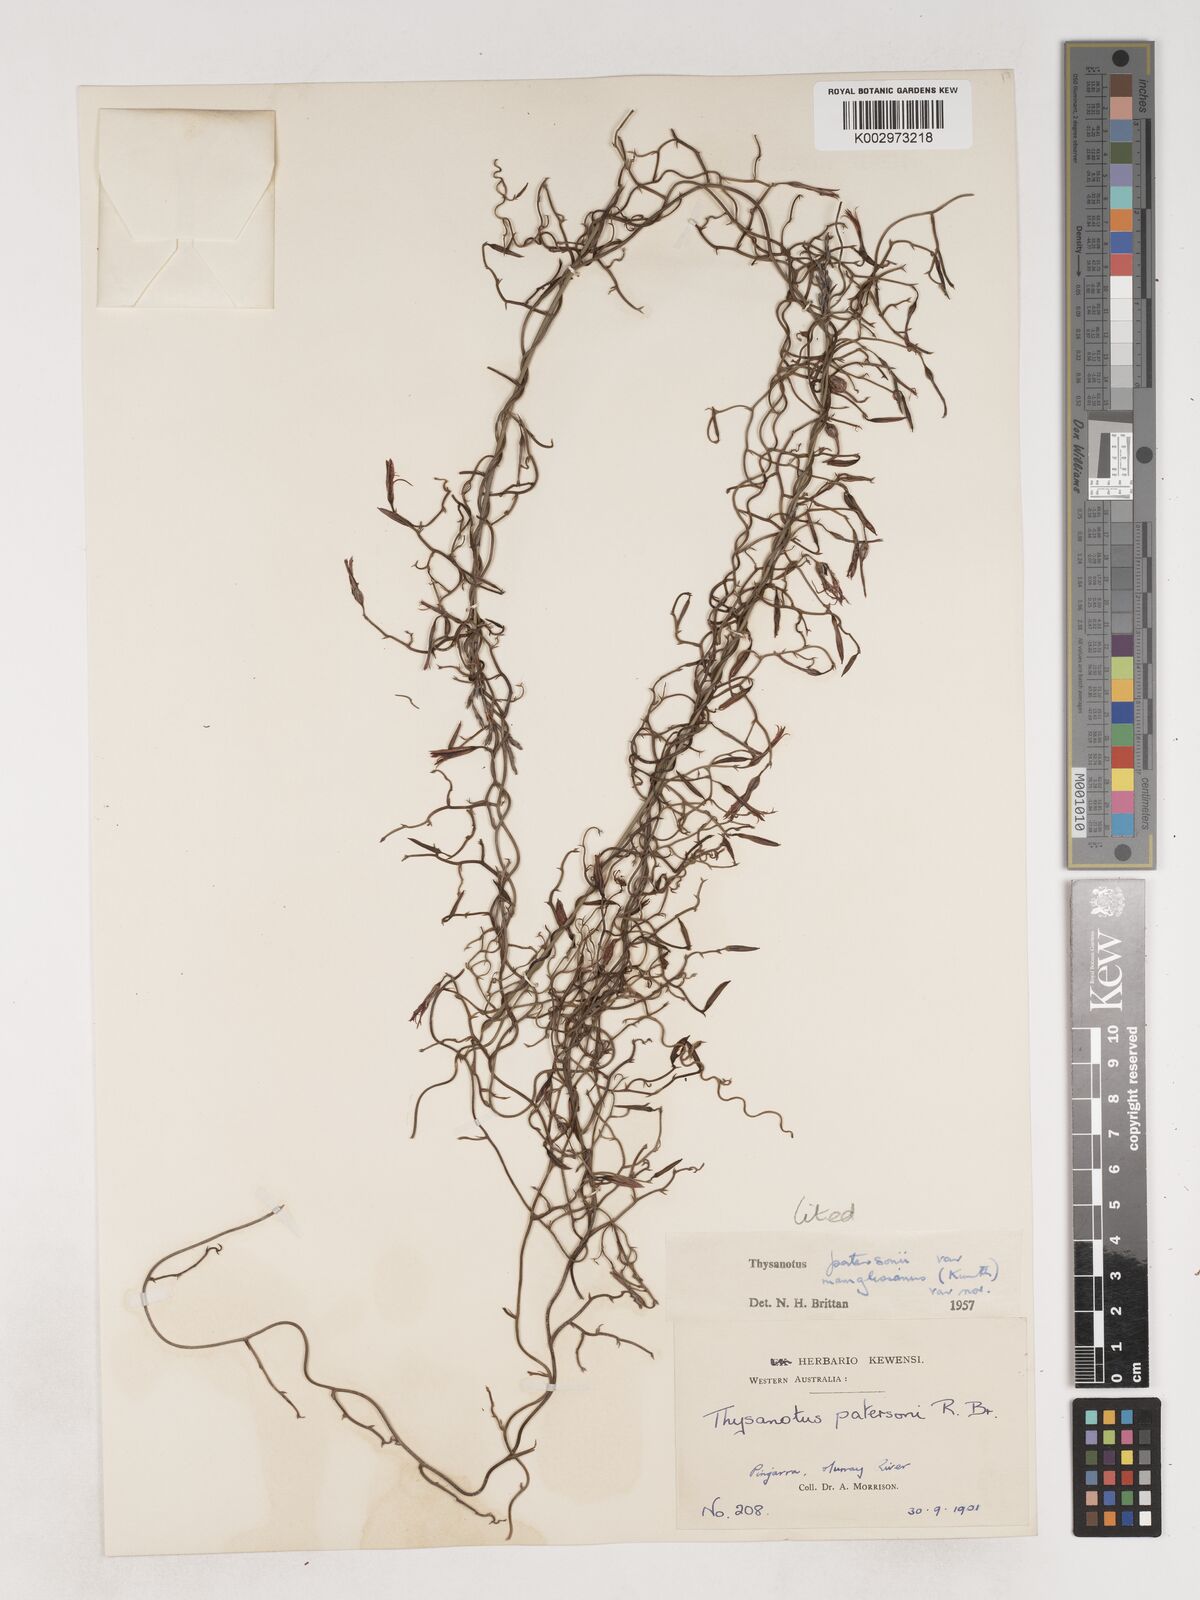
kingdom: Plantae
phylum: Tracheophyta
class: Liliopsida
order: Asparagales
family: Asparagaceae
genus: Thysanotus
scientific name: Thysanotus manglesianus
